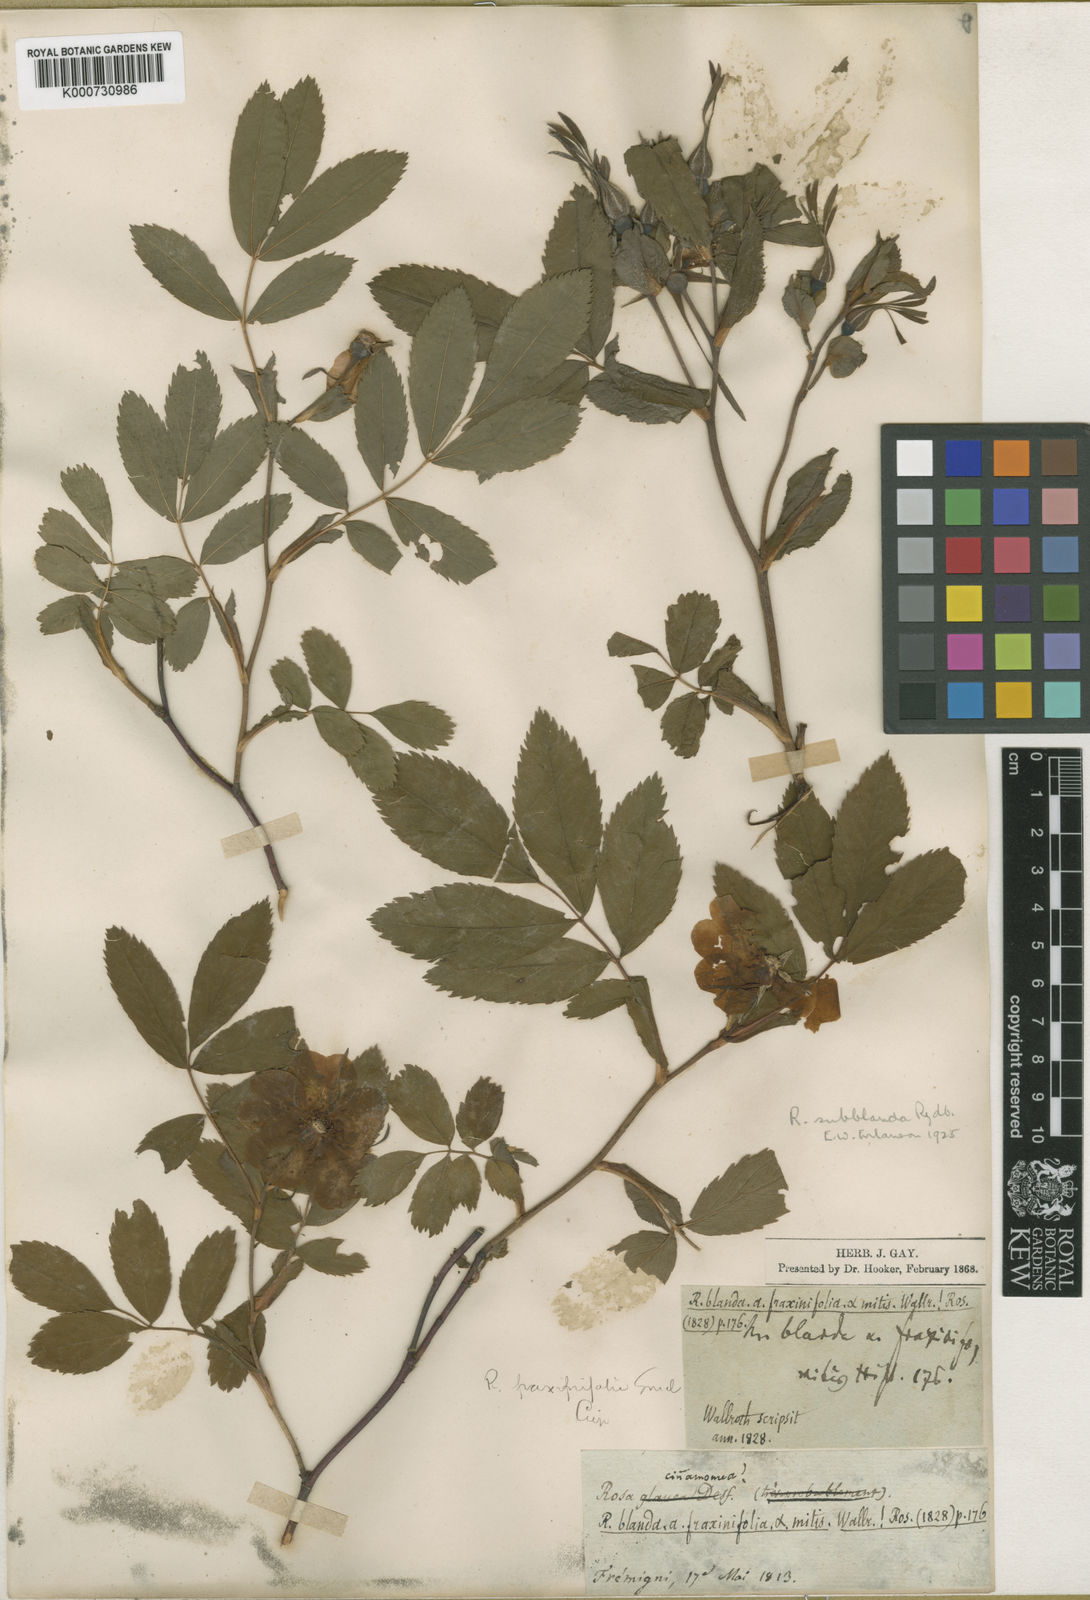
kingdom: Plantae
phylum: Tracheophyta
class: Magnoliopsida
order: Rosales
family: Rosaceae
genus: Rosa
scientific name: Rosa blanda
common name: Smooth rose
